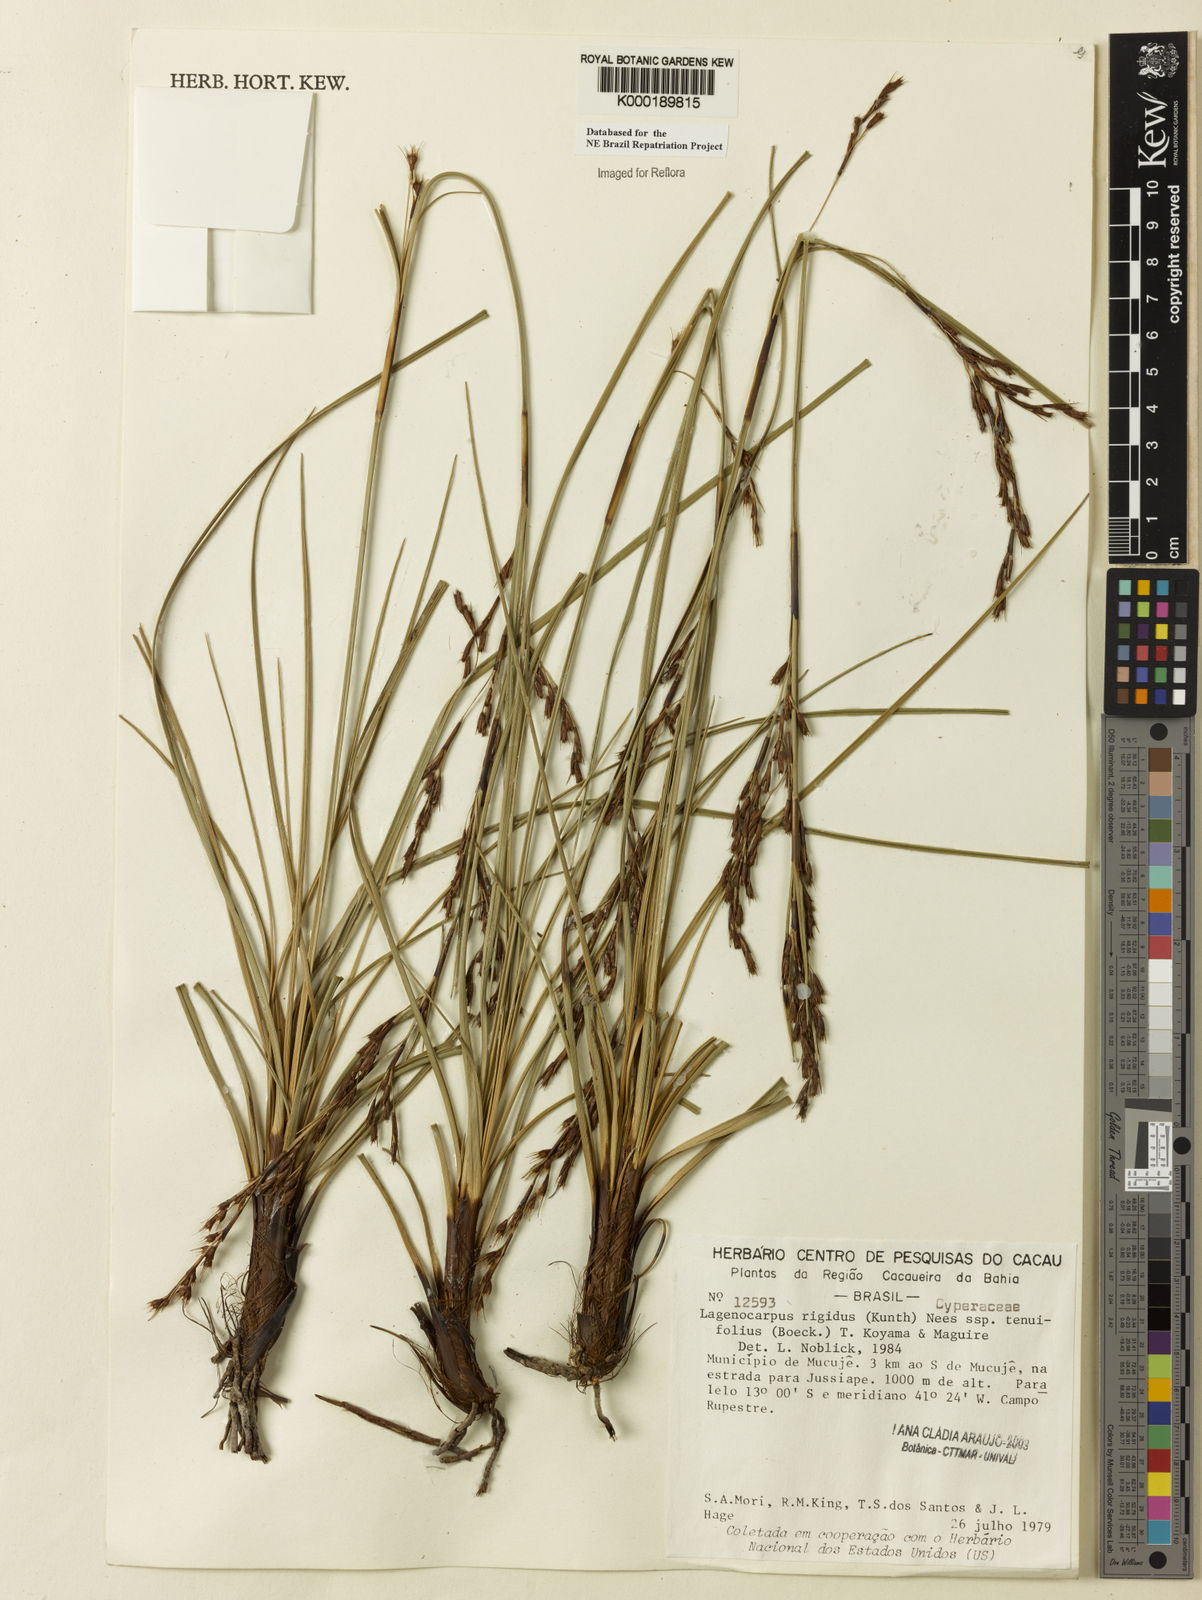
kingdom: Plantae
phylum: Tracheophyta
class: Liliopsida
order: Poales
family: Cyperaceae
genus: Lagenocarpus
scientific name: Lagenocarpus rigidus
